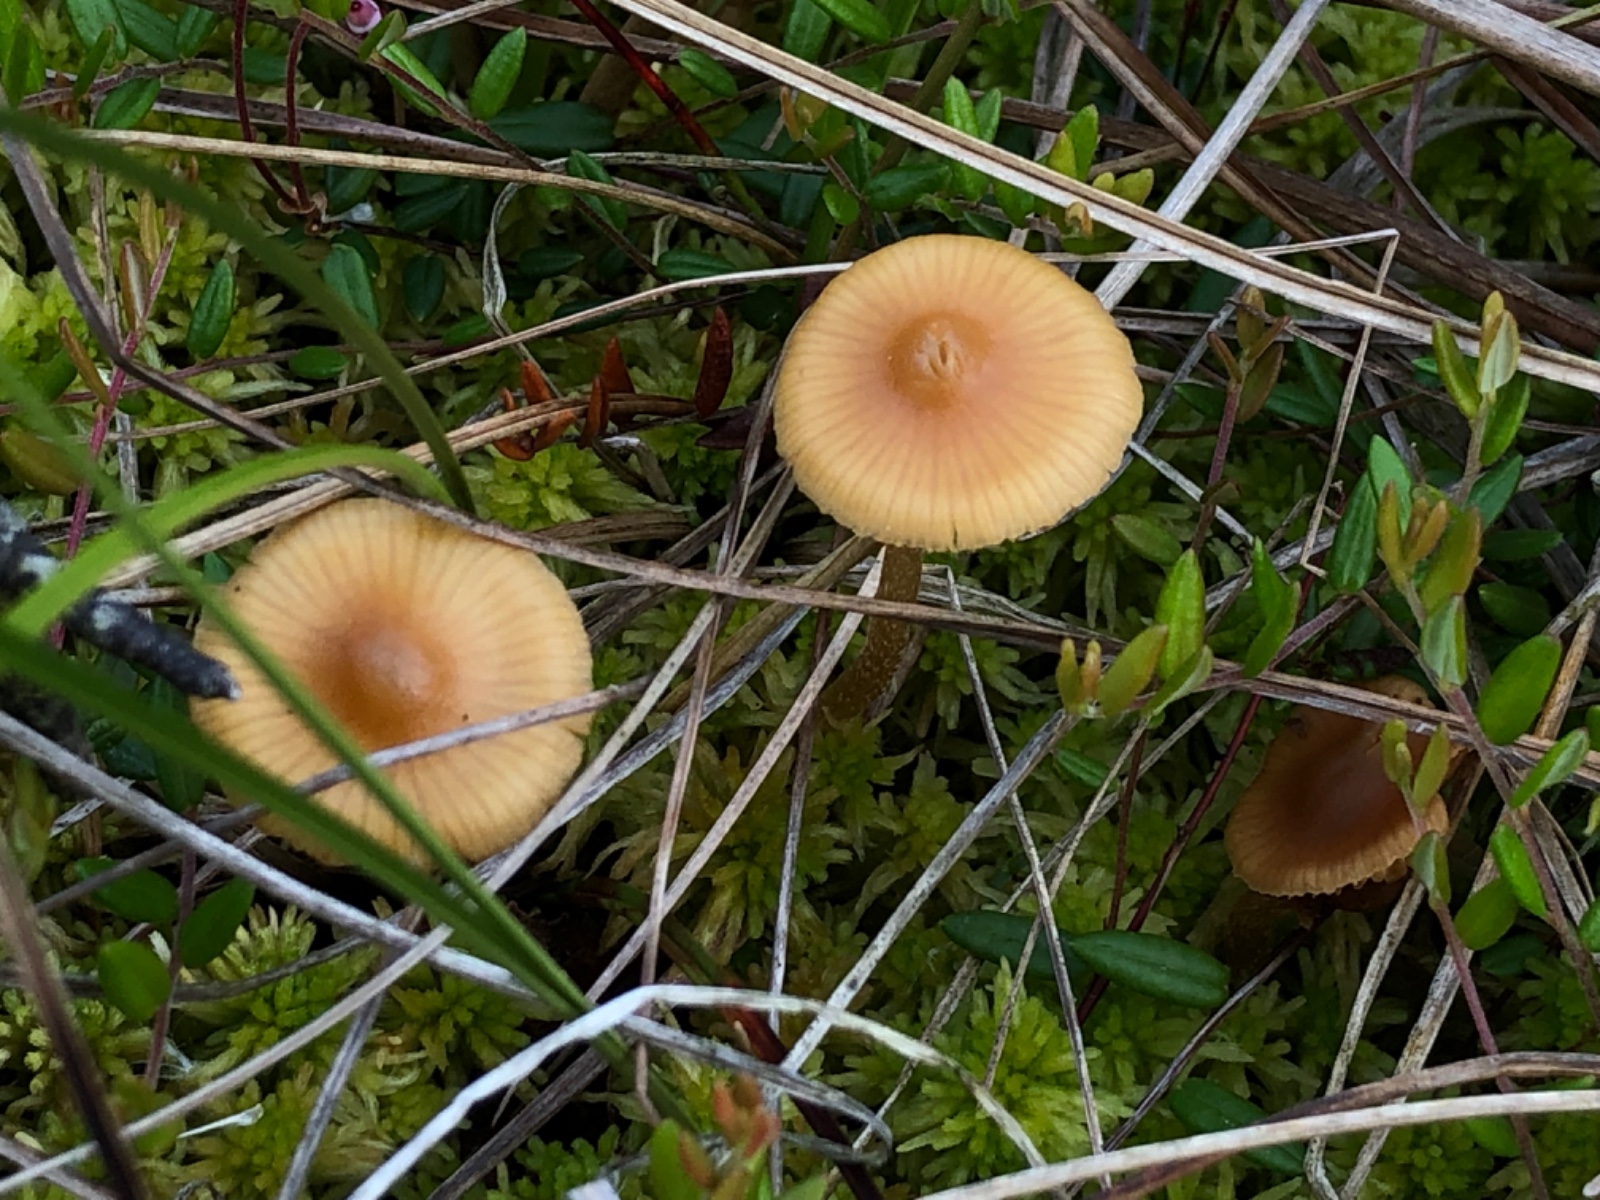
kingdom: Fungi
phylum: Basidiomycota
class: Agaricomycetes
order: Agaricales
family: Hymenogastraceae
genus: Galerina
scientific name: Galerina hybrida
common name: hængesæk-hjelmhat
